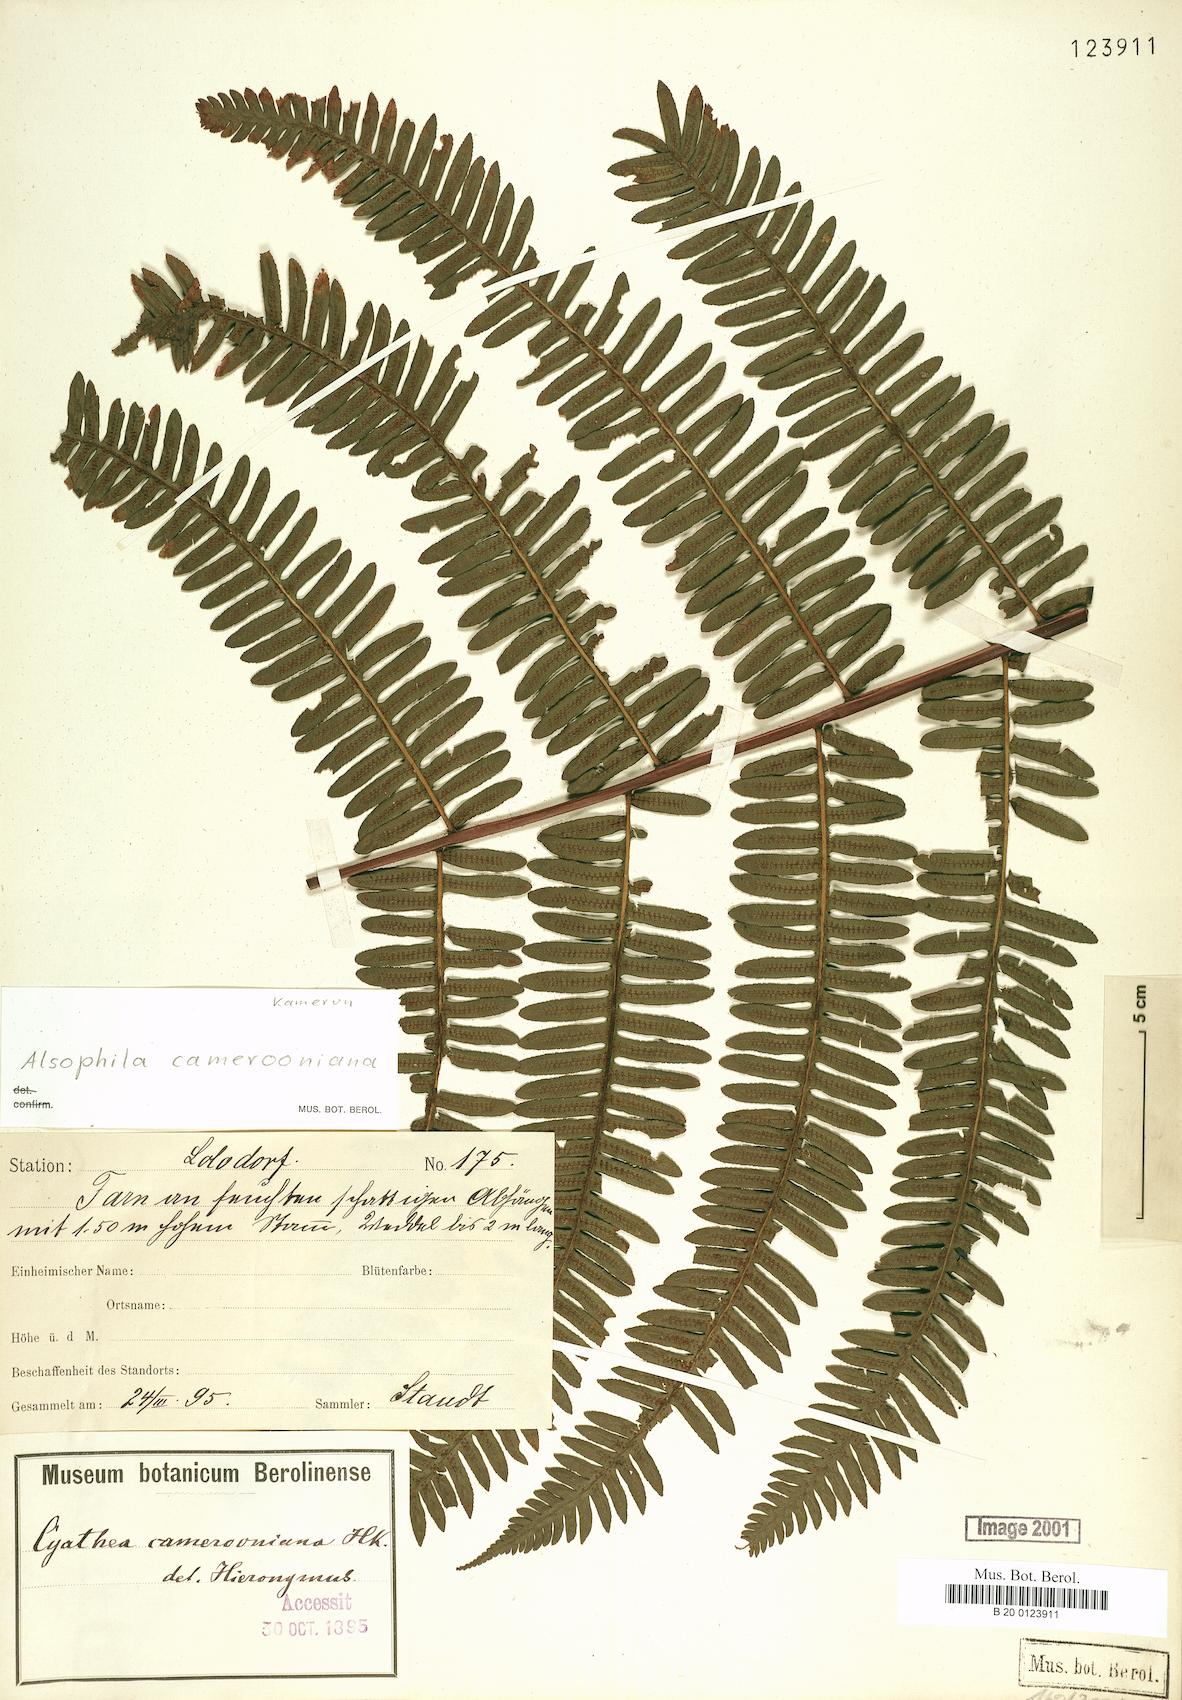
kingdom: Plantae
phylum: Tracheophyta
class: Polypodiopsida
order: Cyatheales
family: Cyatheaceae
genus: Alsophila
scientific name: Alsophila camerooniana
